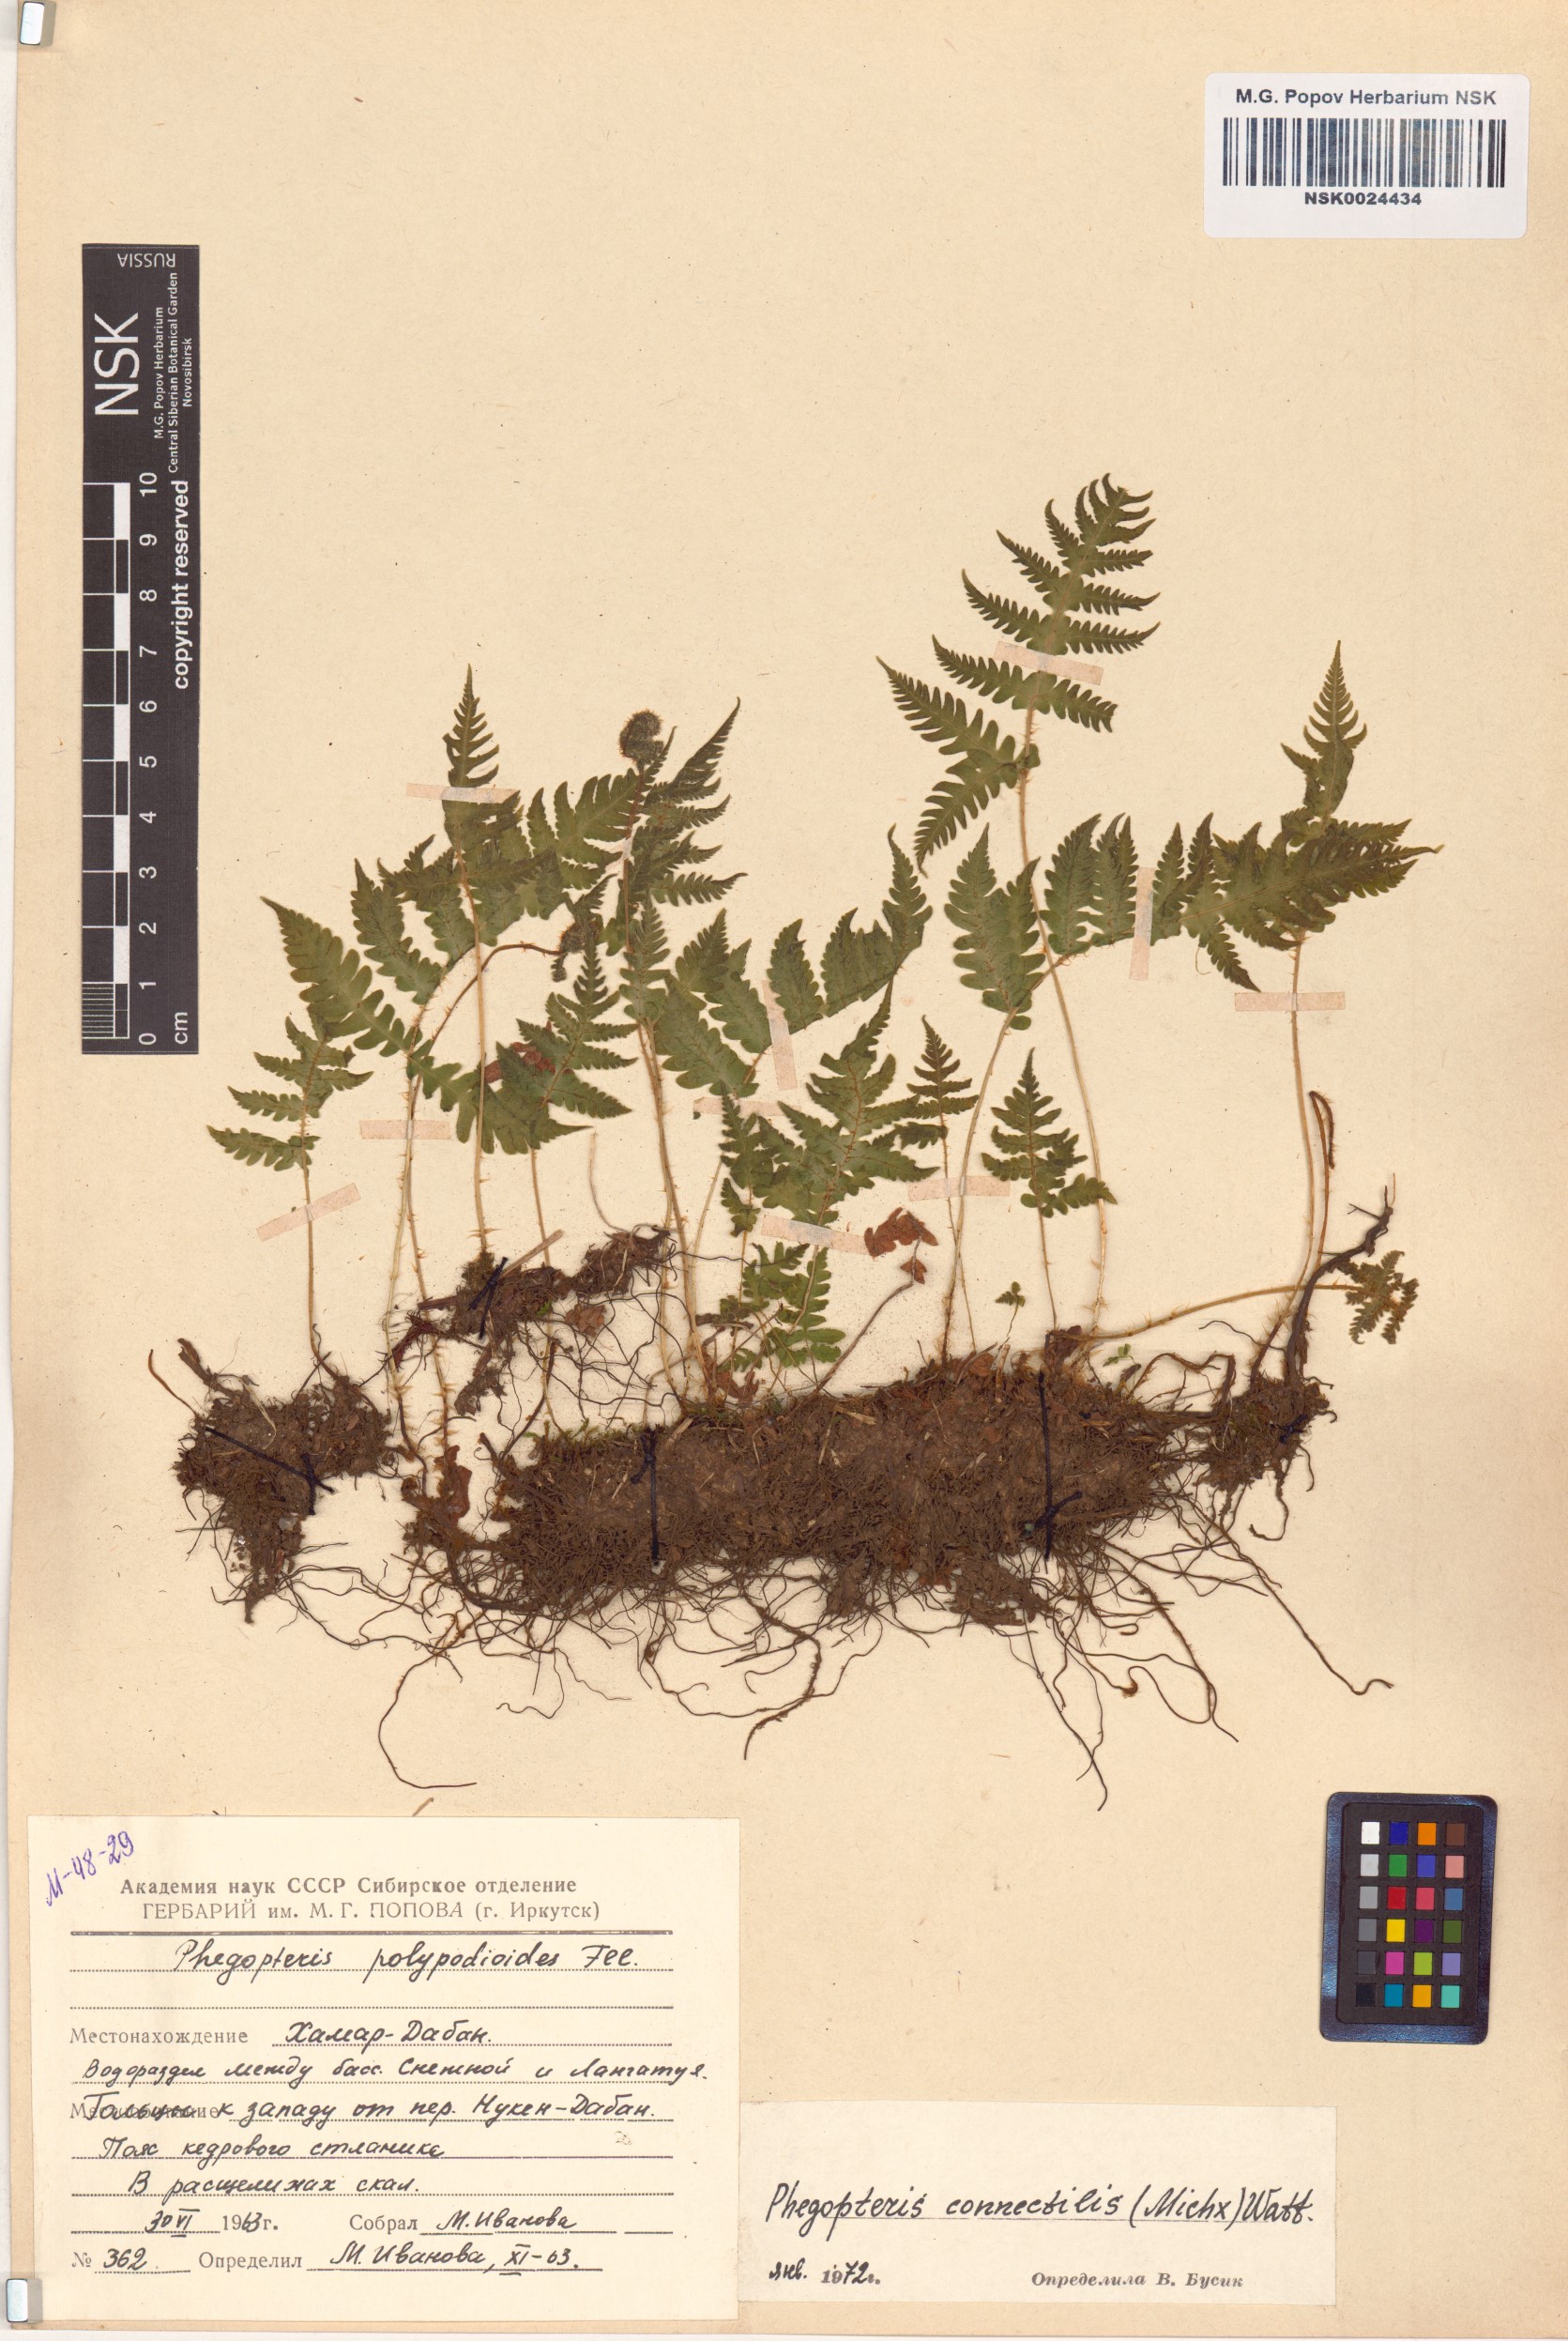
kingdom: Plantae
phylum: Tracheophyta
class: Polypodiopsida
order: Polypodiales
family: Thelypteridaceae
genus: Phegopteris
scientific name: Phegopteris connectilis
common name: Beech fern
